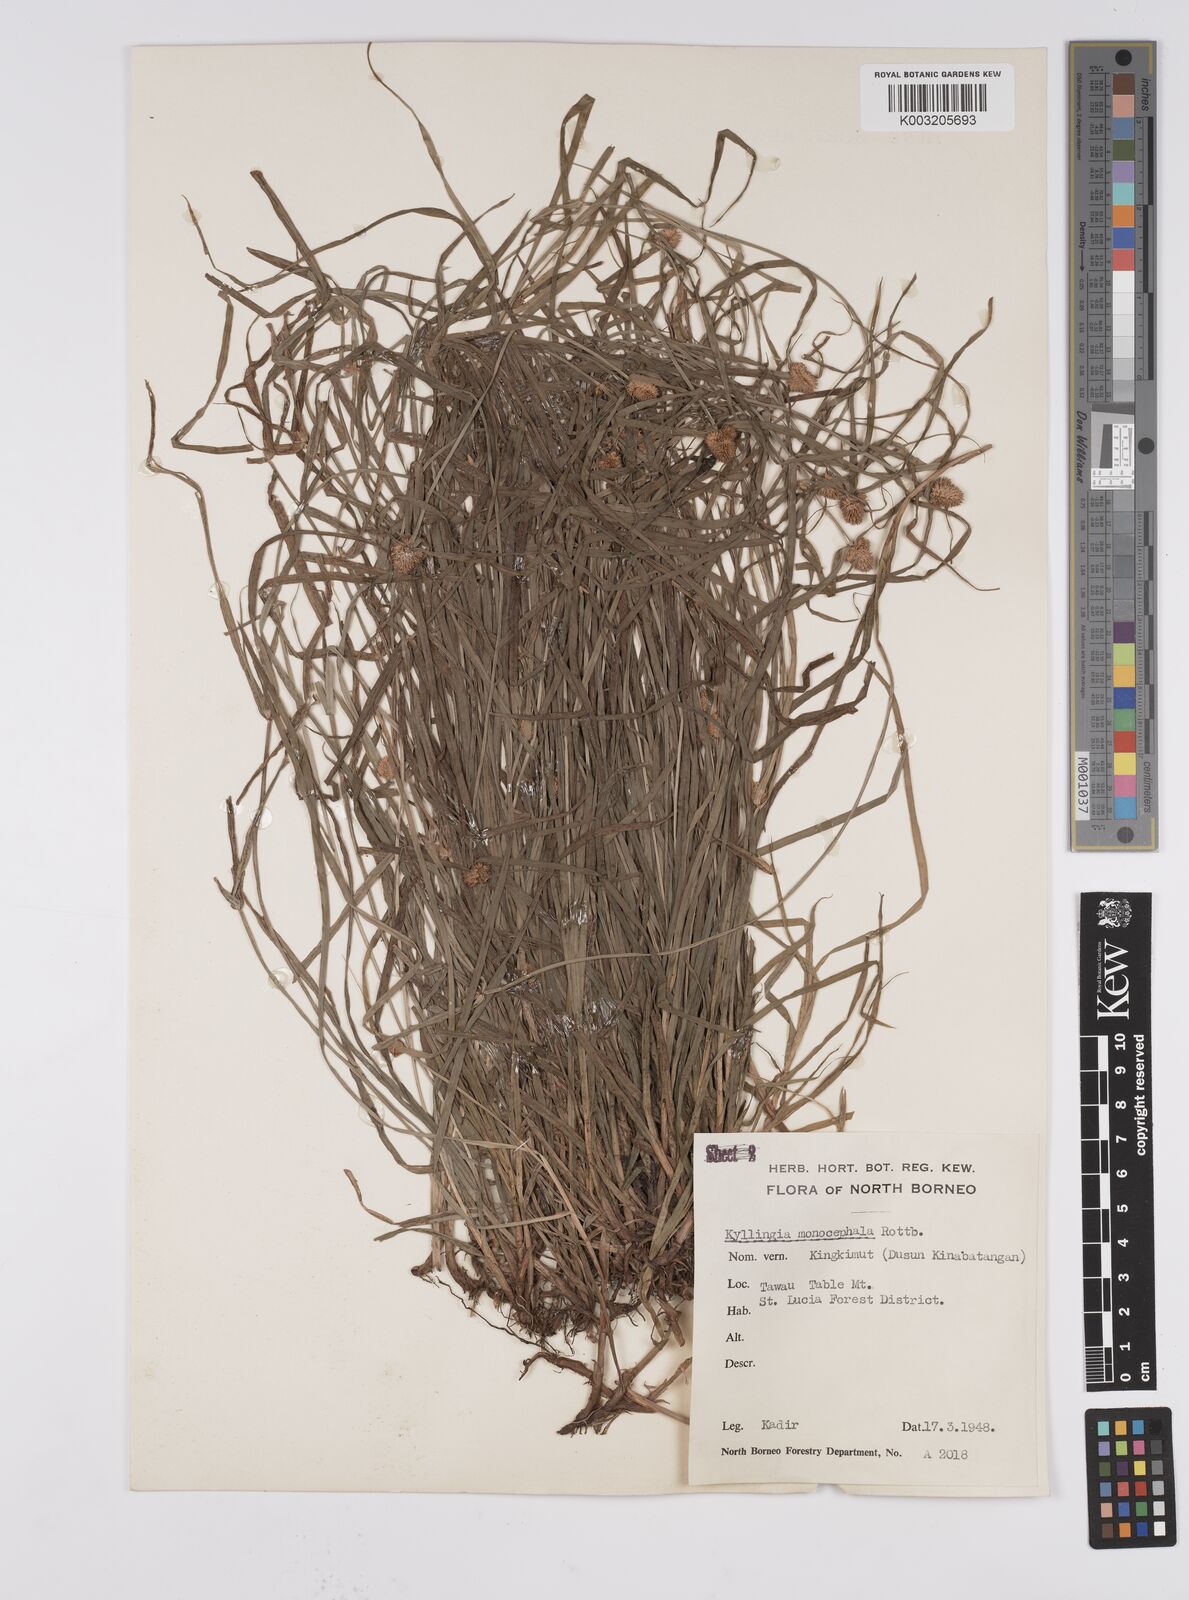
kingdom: Plantae
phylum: Tracheophyta
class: Liliopsida
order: Poales
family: Cyperaceae
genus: Cyperus
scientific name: Cyperus nemoralis
